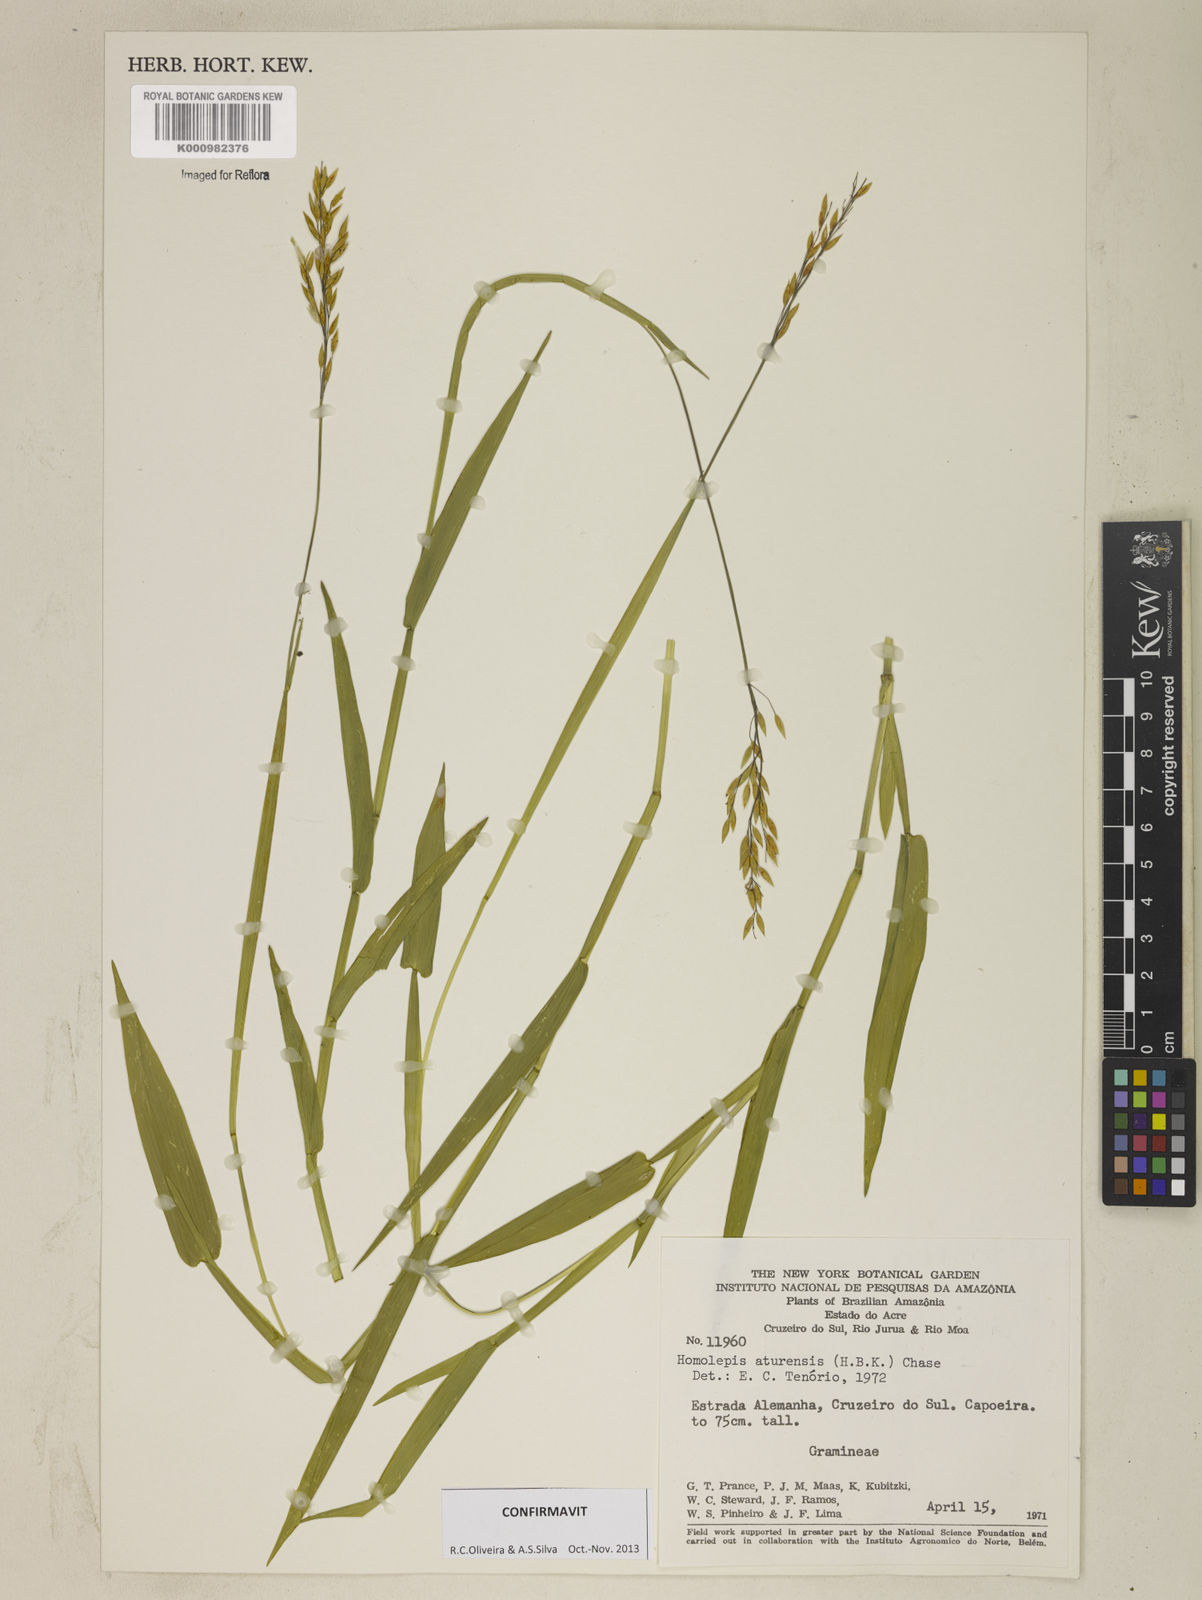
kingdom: Plantae
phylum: Tracheophyta
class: Liliopsida
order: Poales
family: Poaceae
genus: Homolepis
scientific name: Homolepis aturensis
